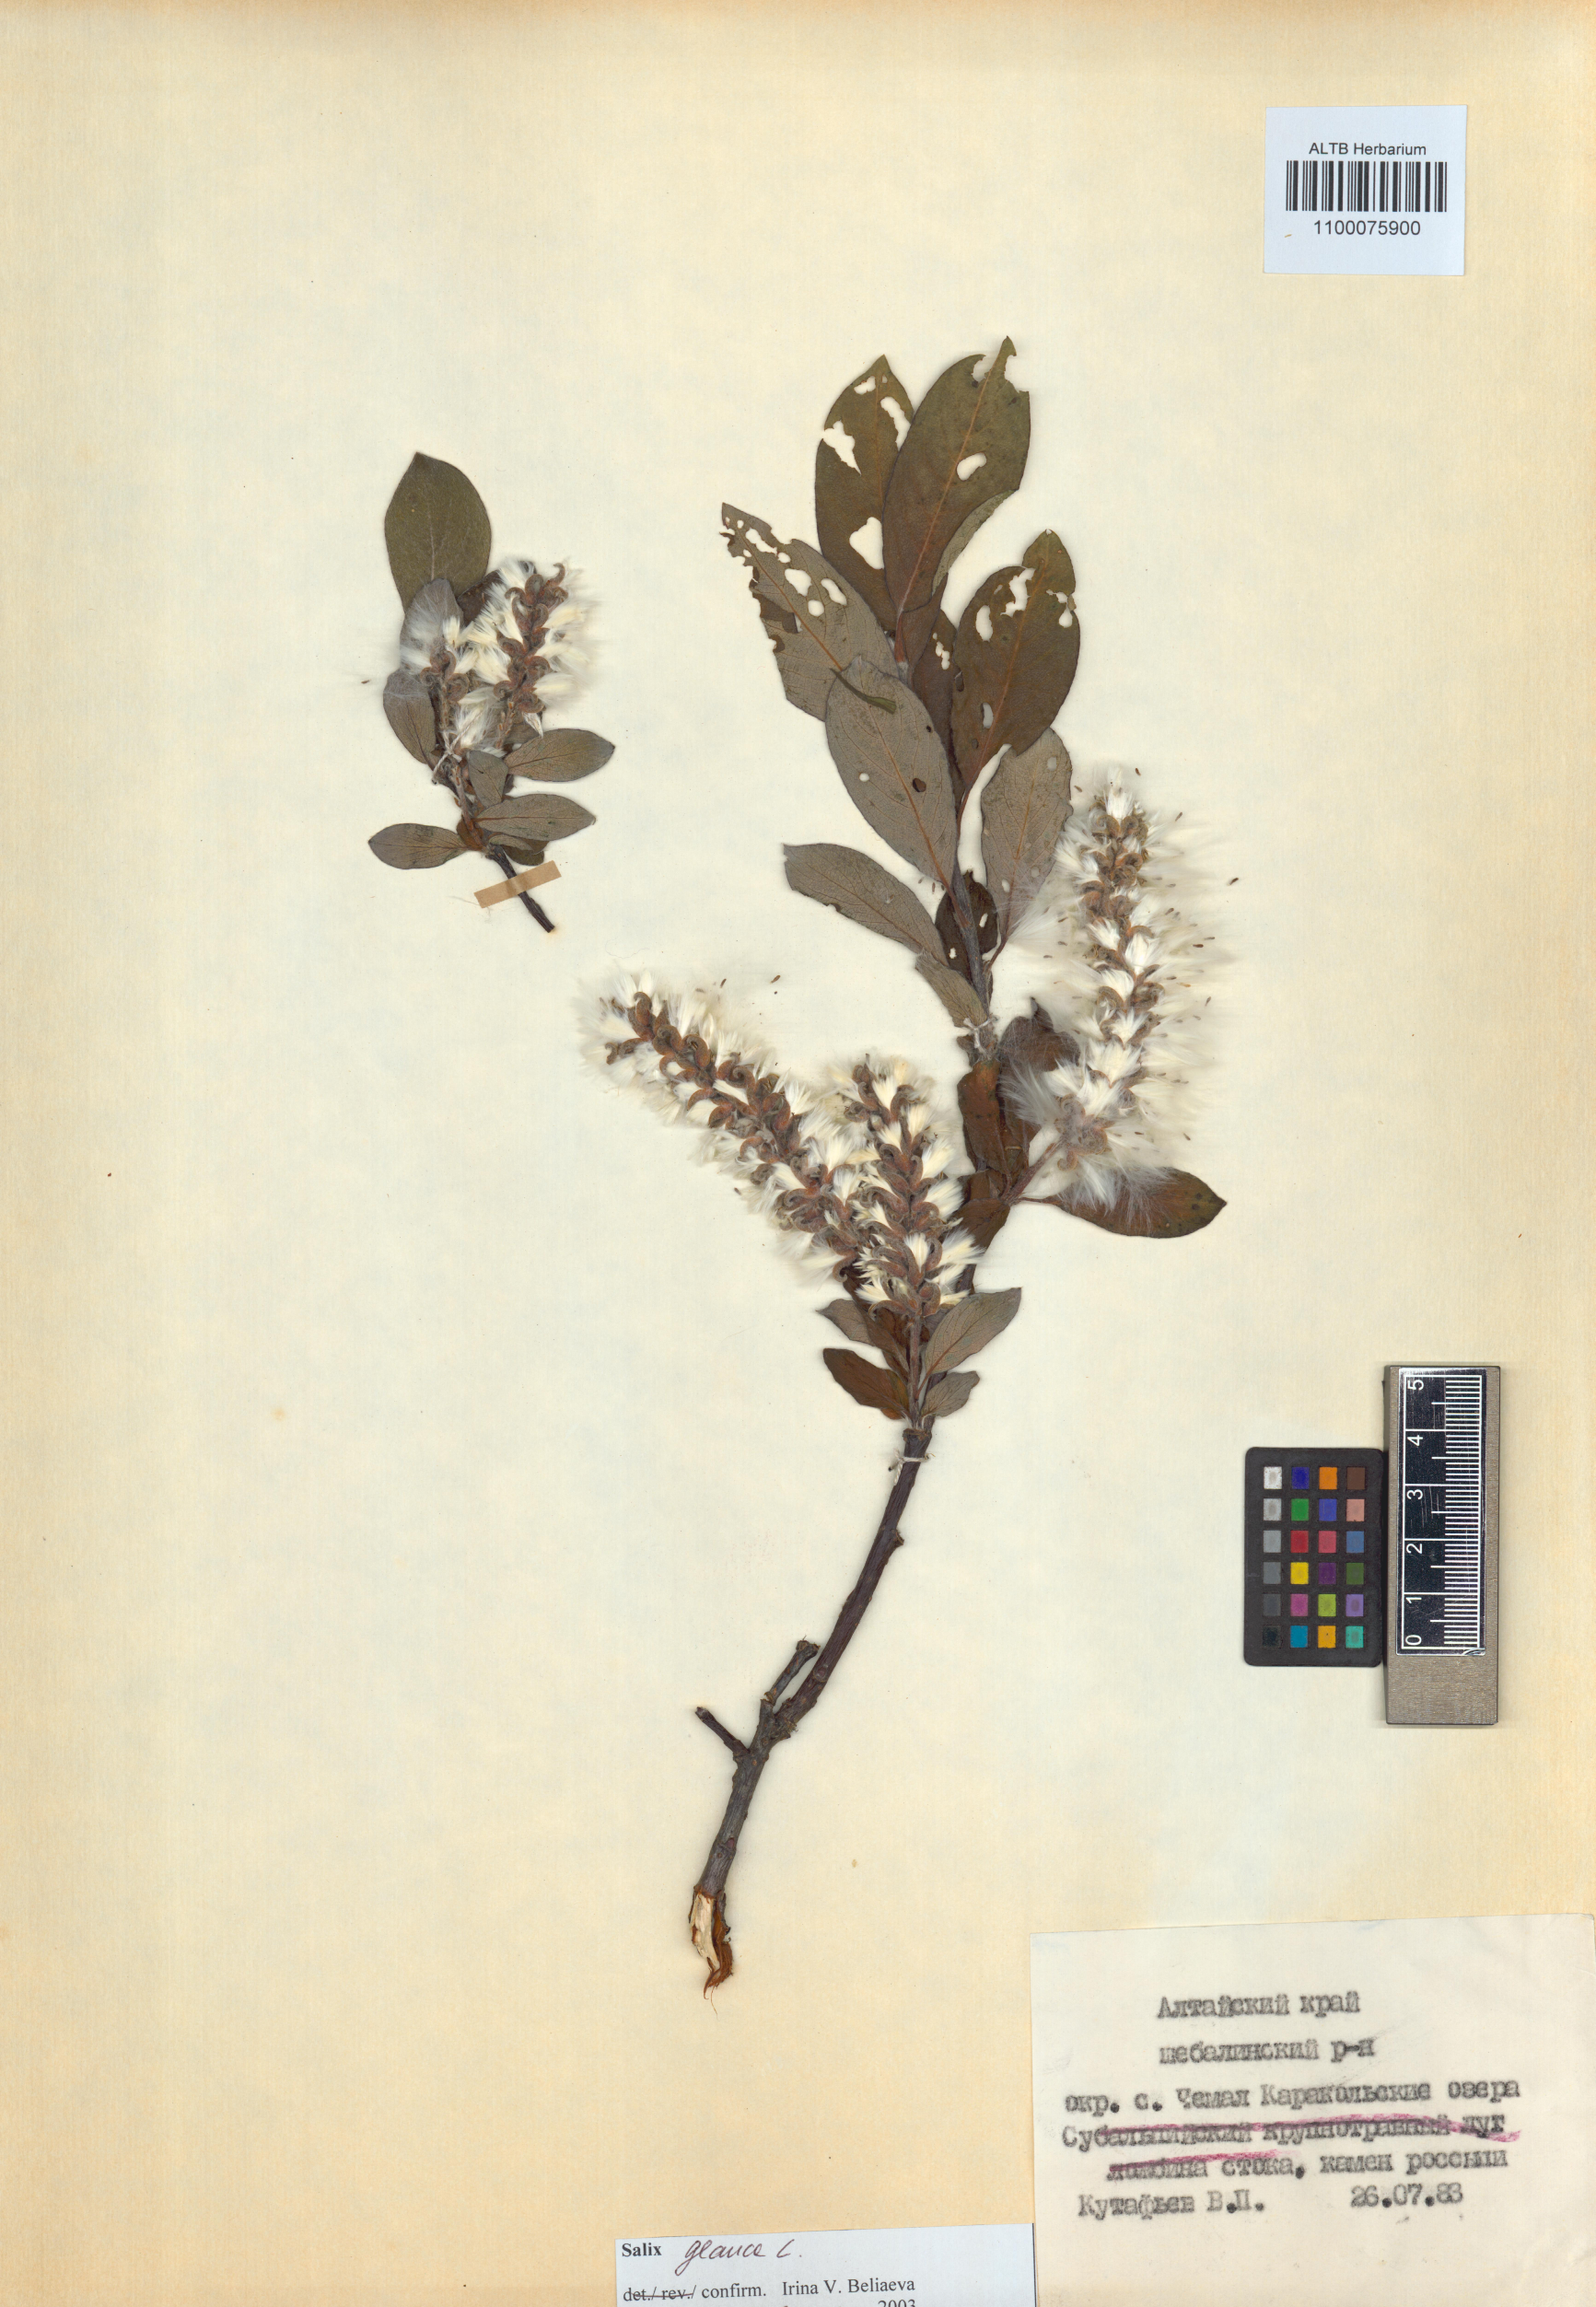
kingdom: Plantae
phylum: Tracheophyta
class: Magnoliopsida
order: Malpighiales
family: Salicaceae
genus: Salix
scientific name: Salix glauca
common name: Glaucous willow
